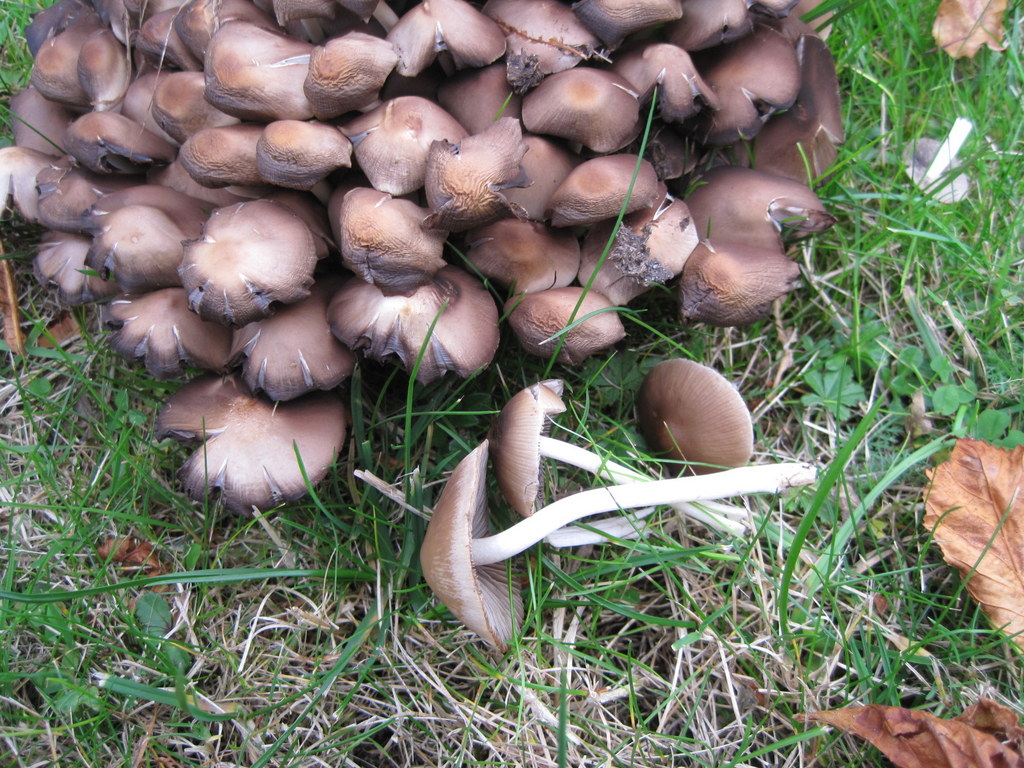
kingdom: Fungi
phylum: Basidiomycota
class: Agaricomycetes
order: Agaricales
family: Psathyrellaceae
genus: Britzelmayria
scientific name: Britzelmayria multipedata
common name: knippe-mørkhat
